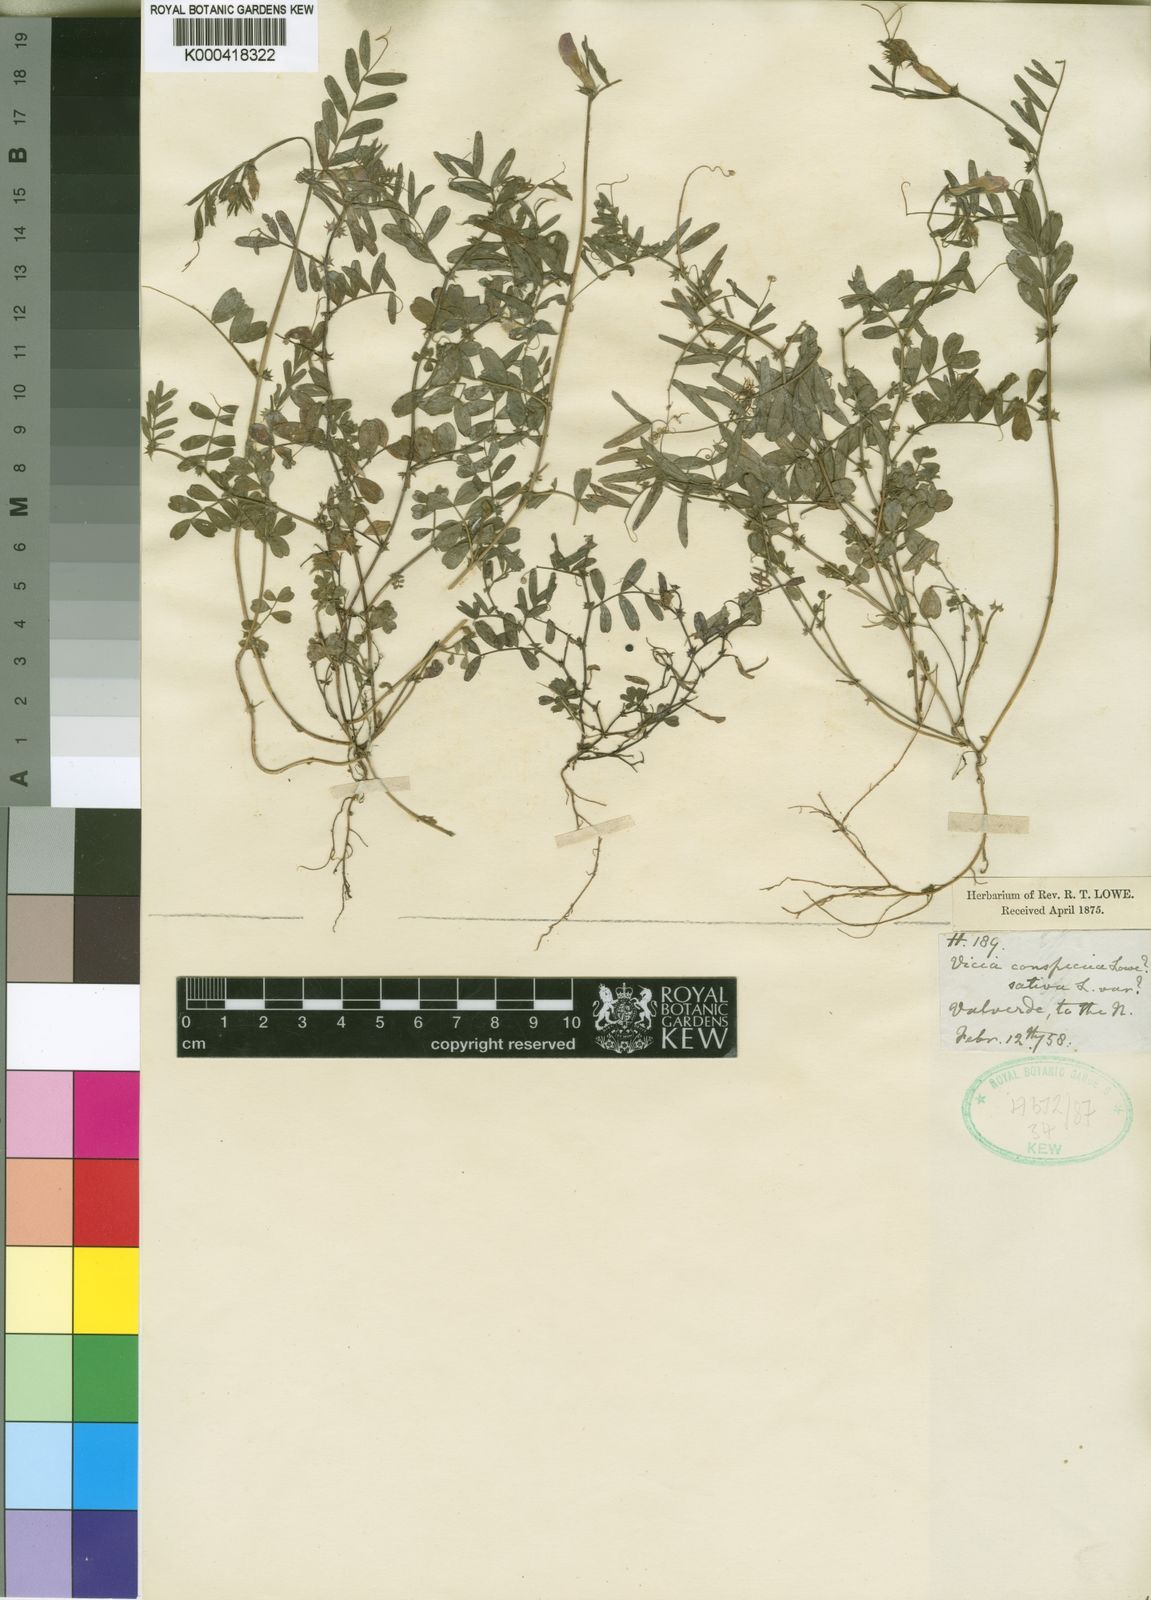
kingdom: Plantae
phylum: Tracheophyta
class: Magnoliopsida
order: Fabales
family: Fabaceae
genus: Vicia
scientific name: Vicia sativa
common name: Garden vetch
